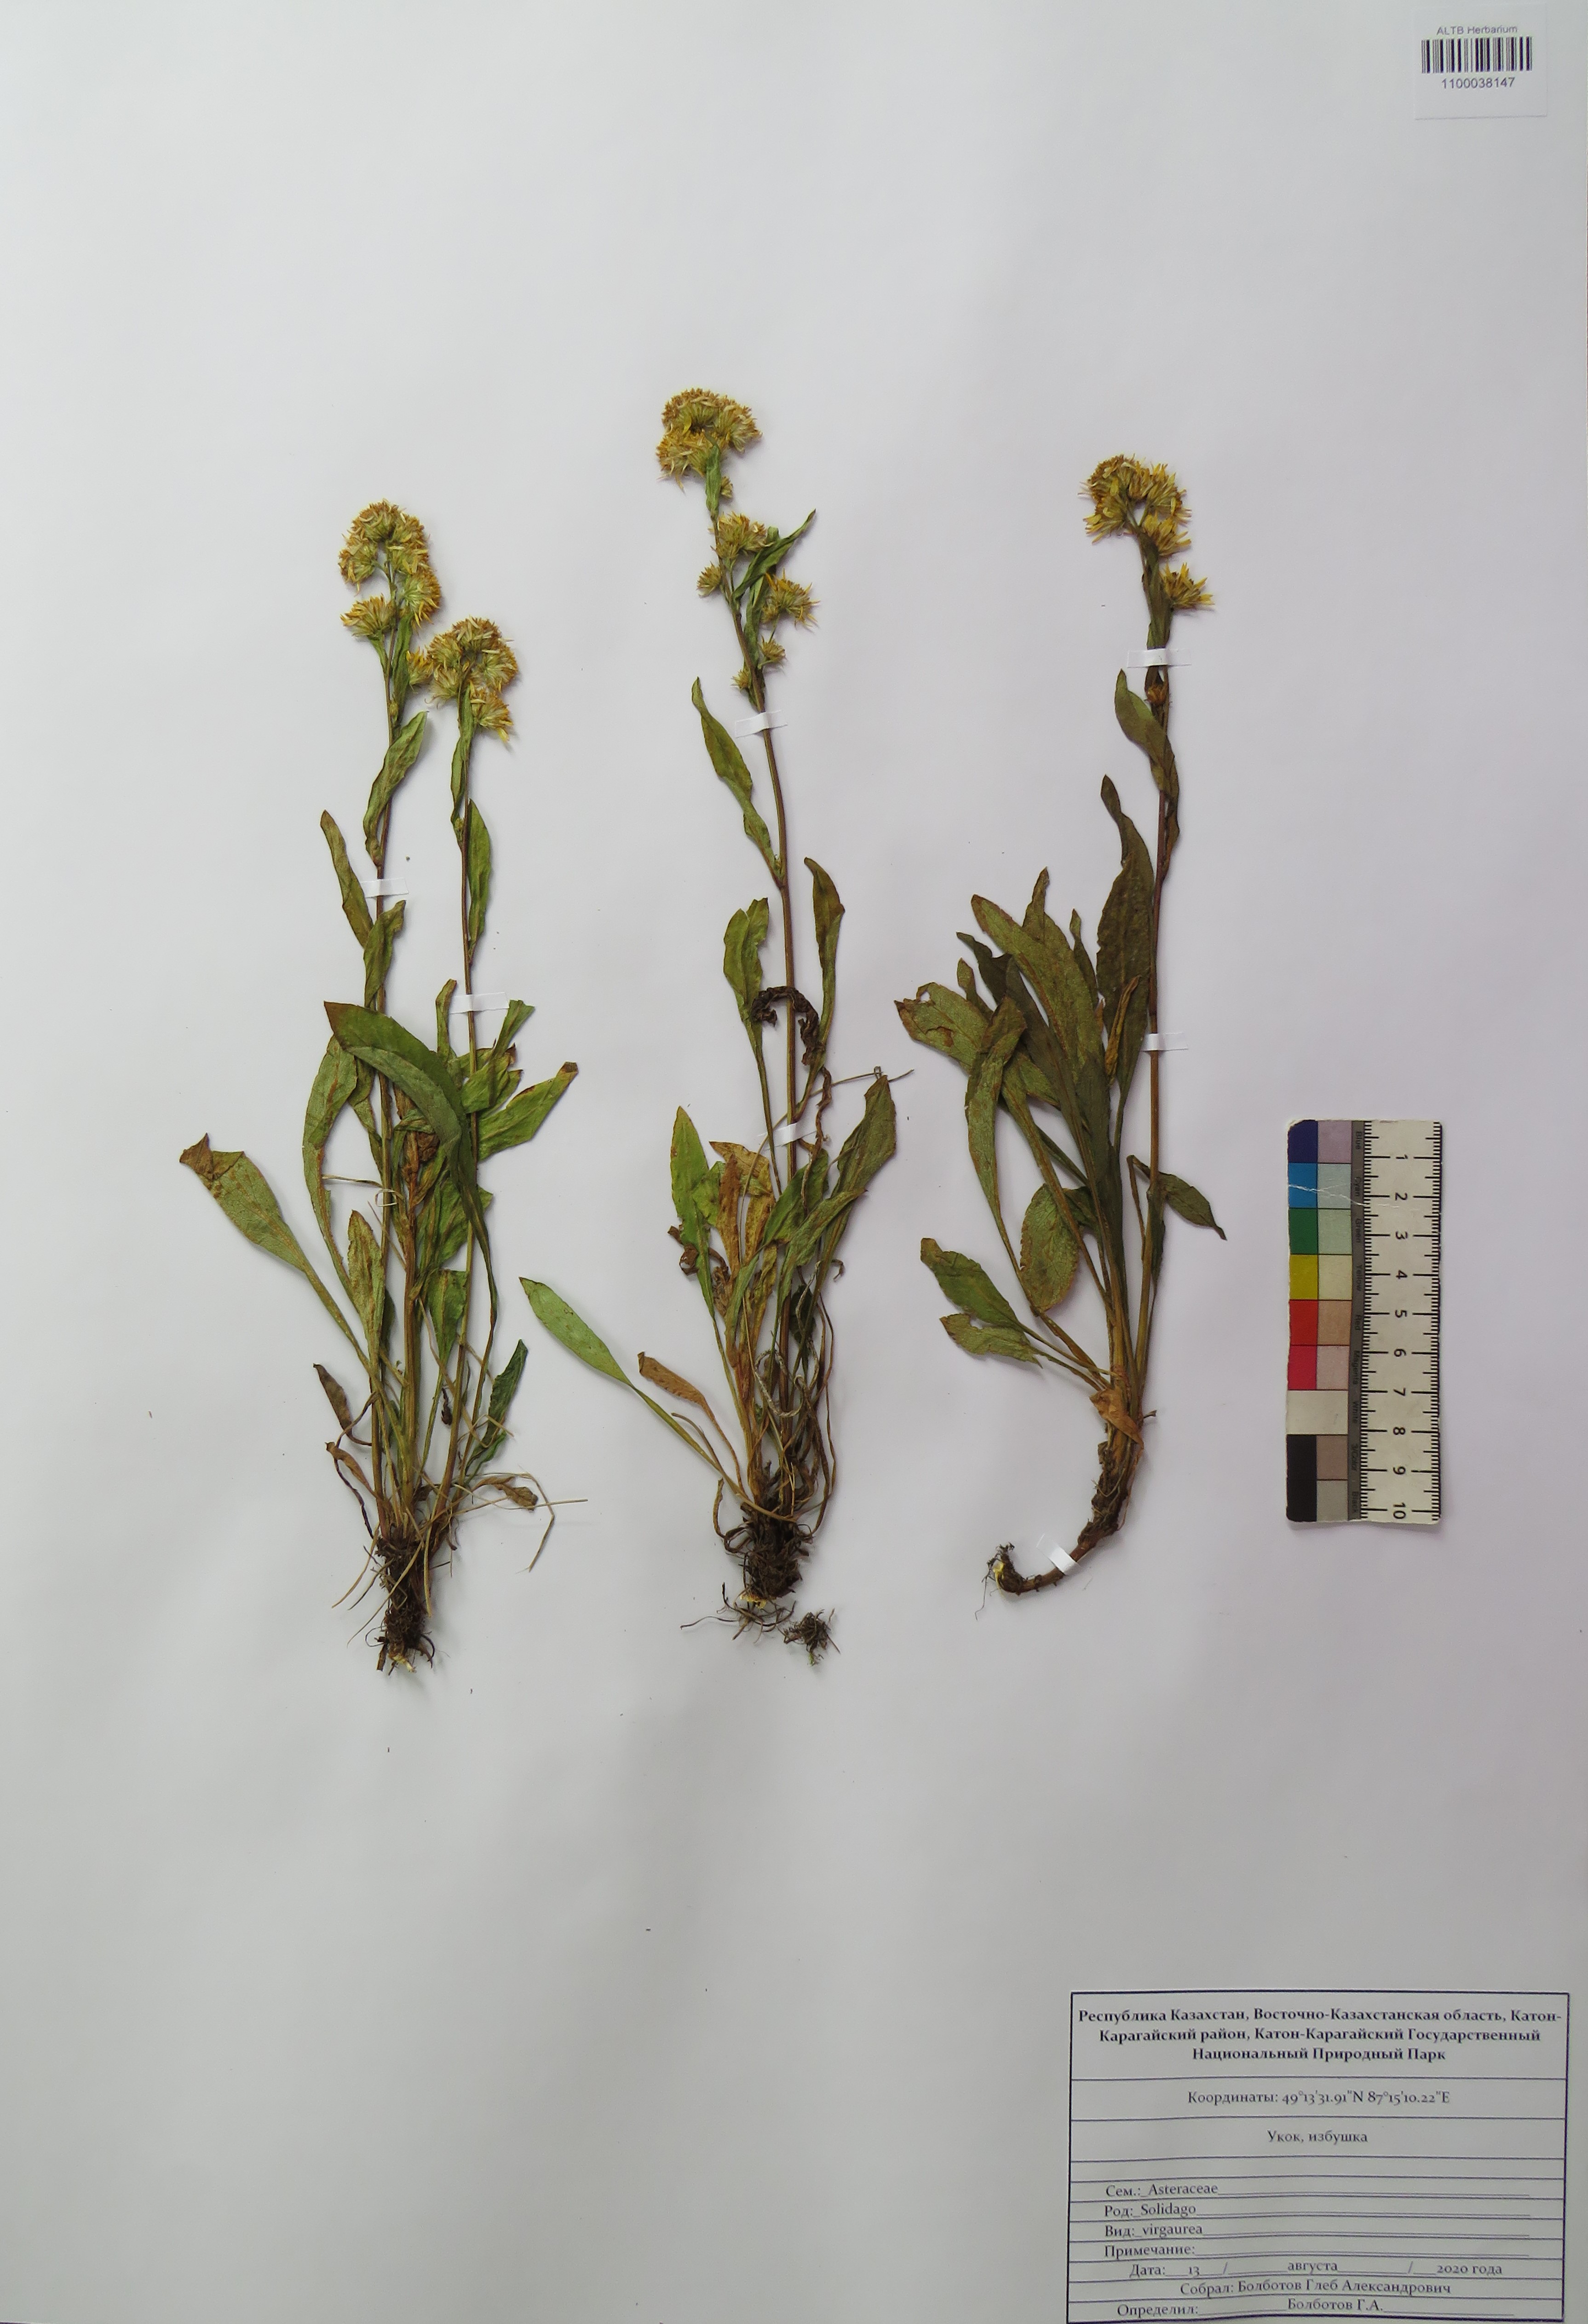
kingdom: Plantae
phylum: Tracheophyta
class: Magnoliopsida
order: Asterales
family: Asteraceae
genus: Solidago
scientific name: Solidago virgaurea
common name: Goldenrod
